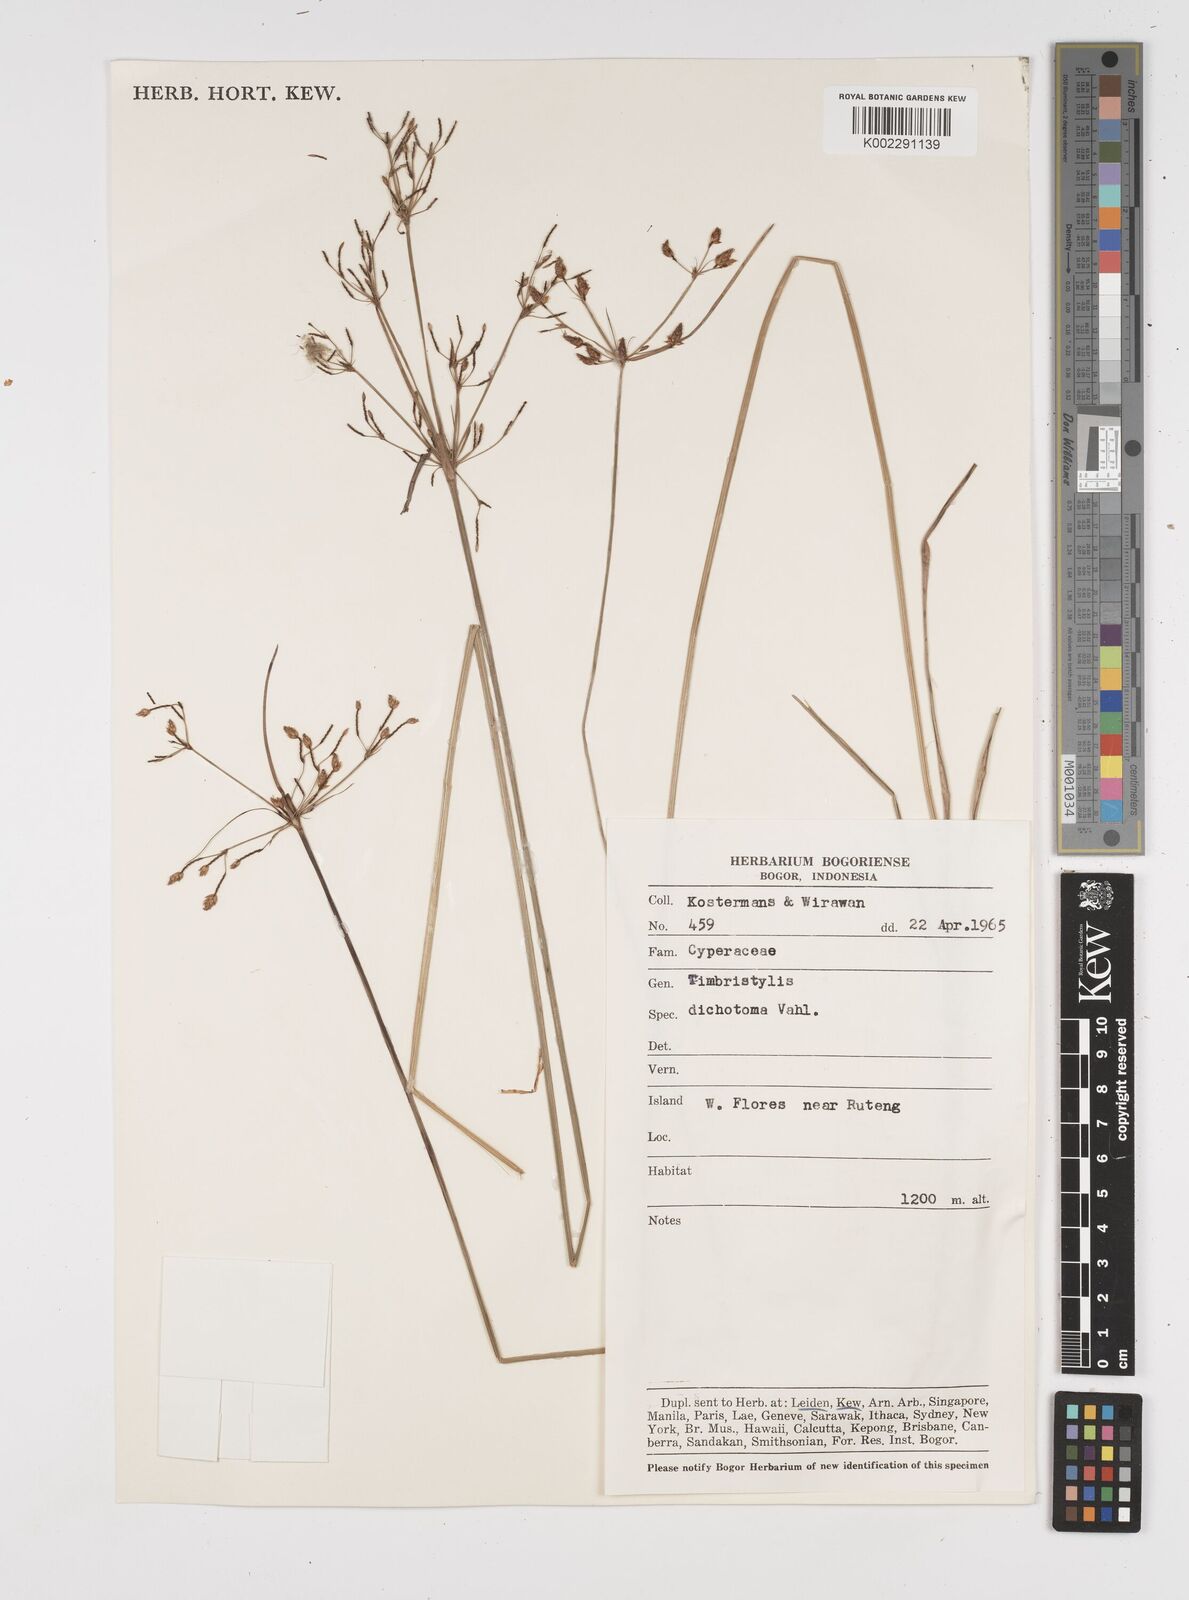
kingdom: Plantae
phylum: Tracheophyta
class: Liliopsida
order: Poales
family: Cyperaceae
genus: Fimbristylis
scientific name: Fimbristylis dichotoma
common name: Forked fimbry
